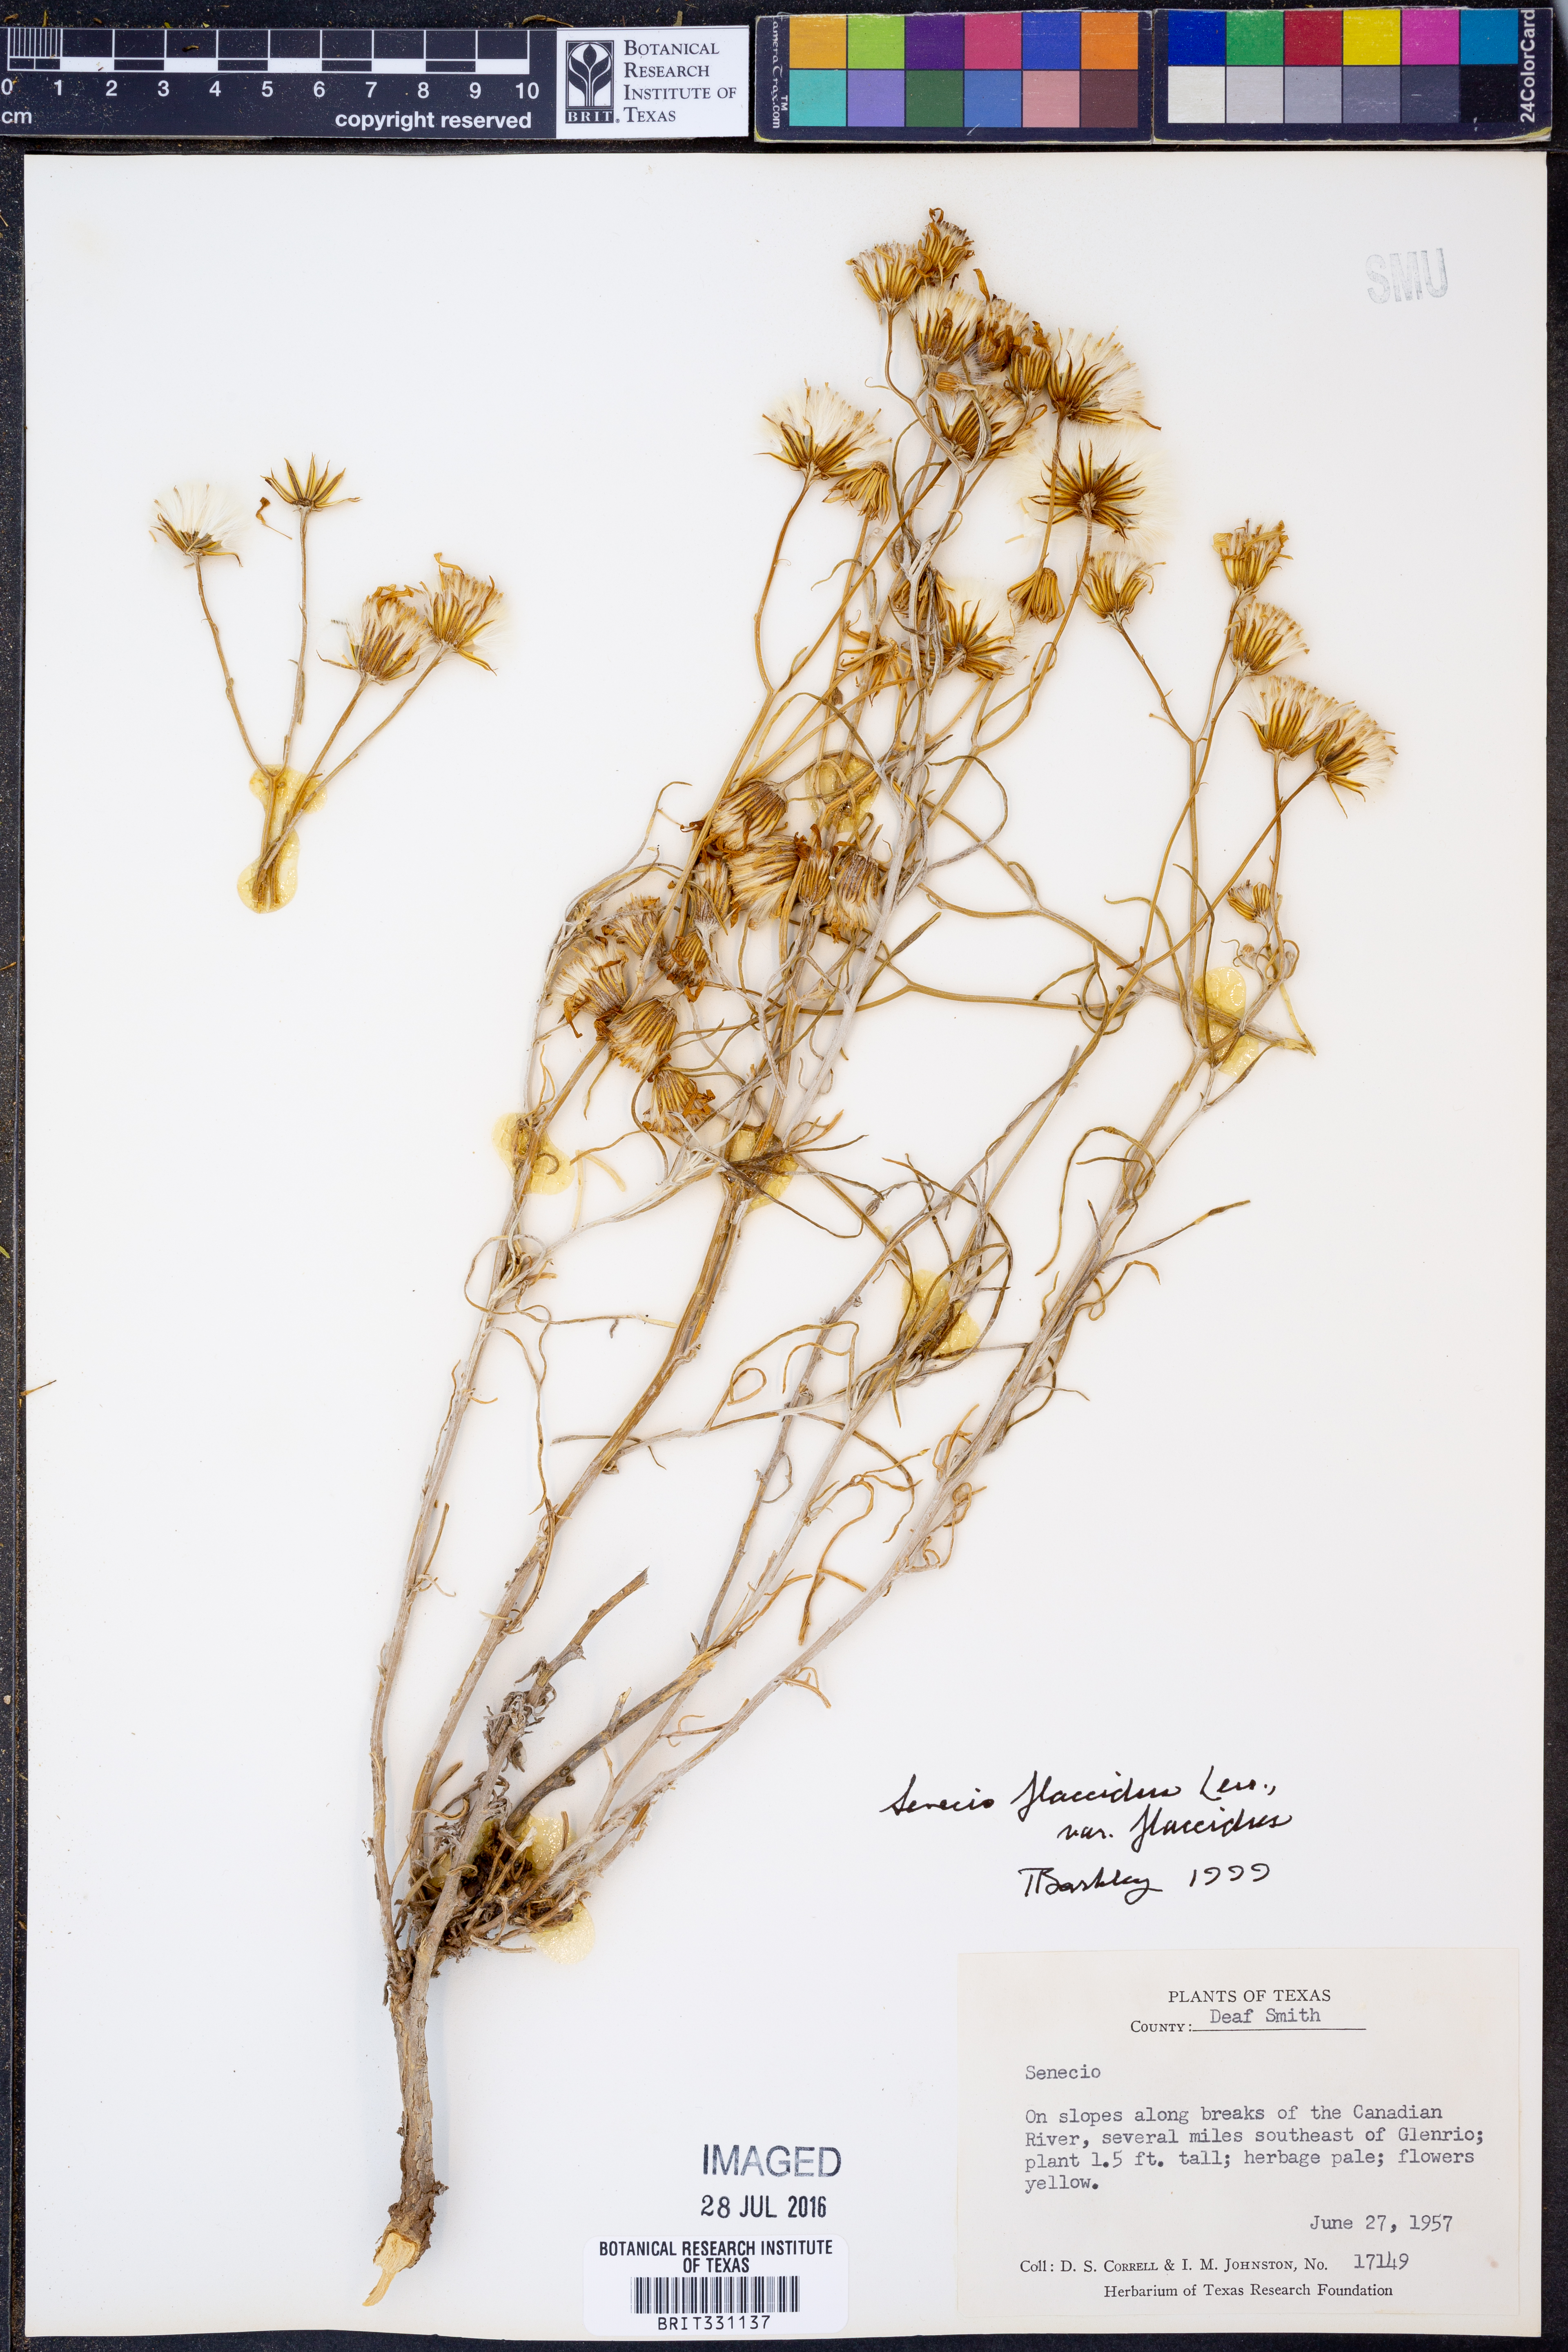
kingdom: Plantae
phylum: Tracheophyta
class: Magnoliopsida
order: Asterales
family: Asteraceae
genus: Senecio
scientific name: Senecio flaccidus
